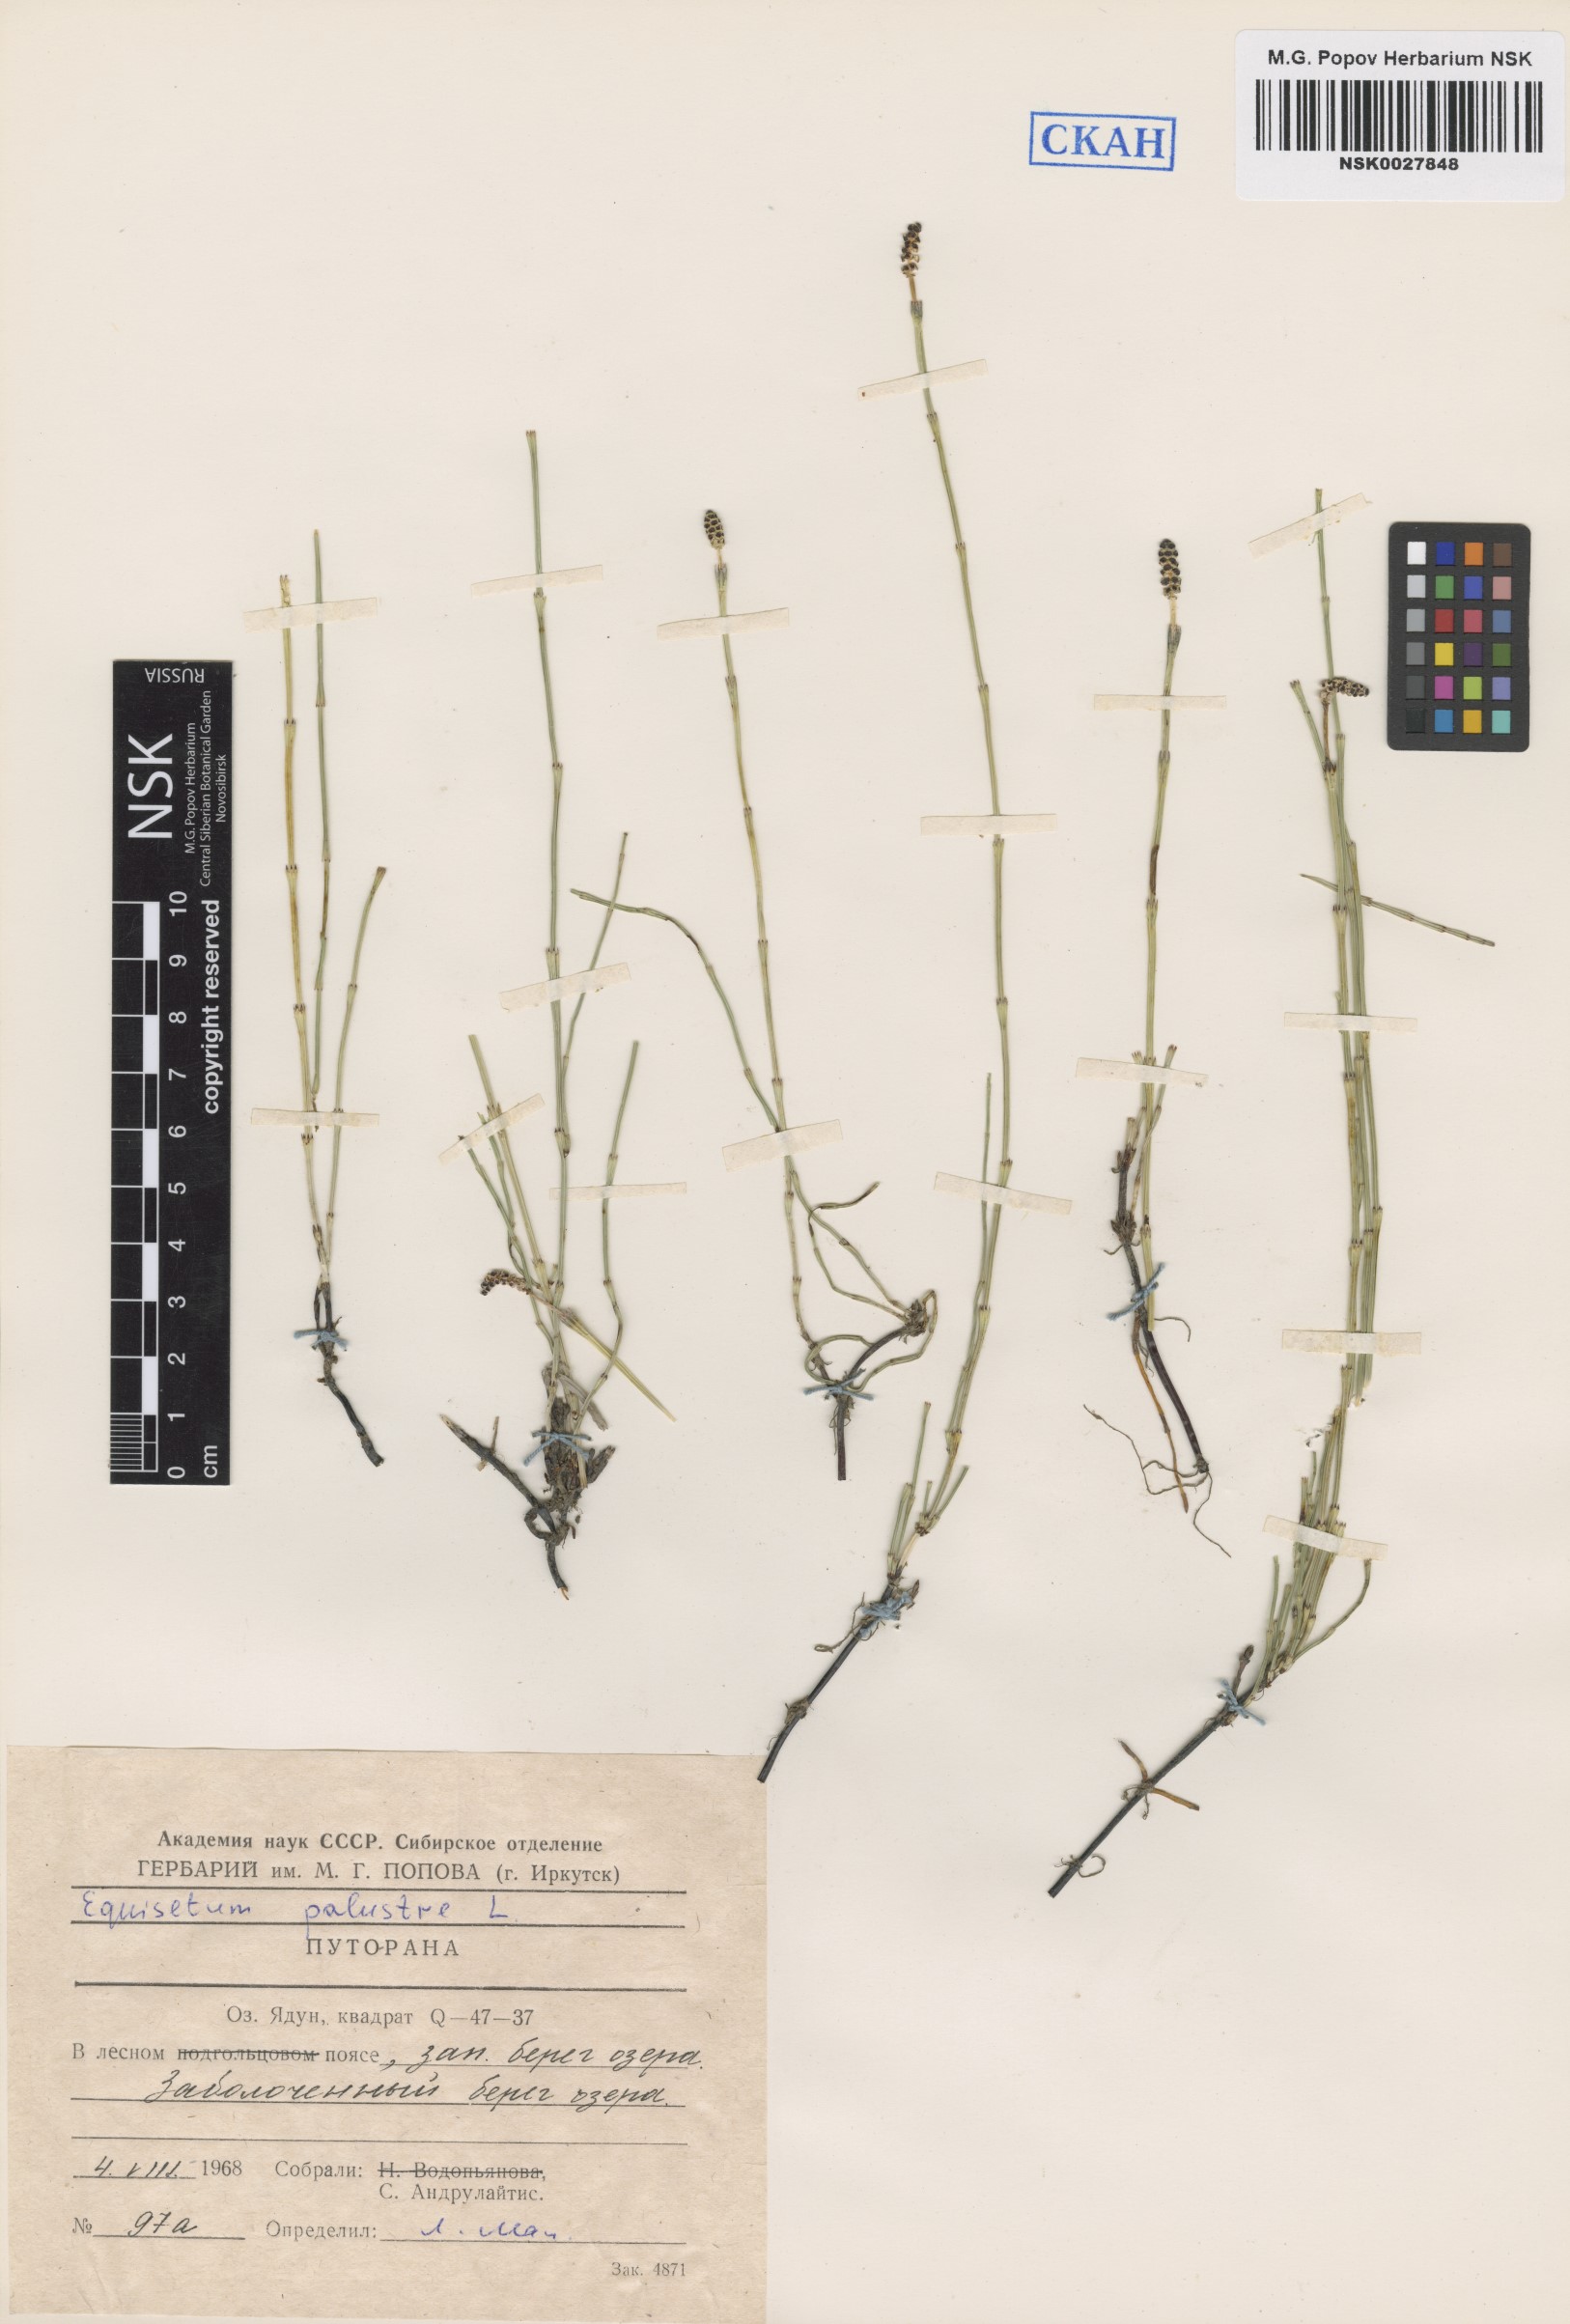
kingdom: Plantae
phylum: Tracheophyta
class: Polypodiopsida
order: Equisetales
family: Equisetaceae
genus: Equisetum
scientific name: Equisetum palustre
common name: Marsh horsetail
